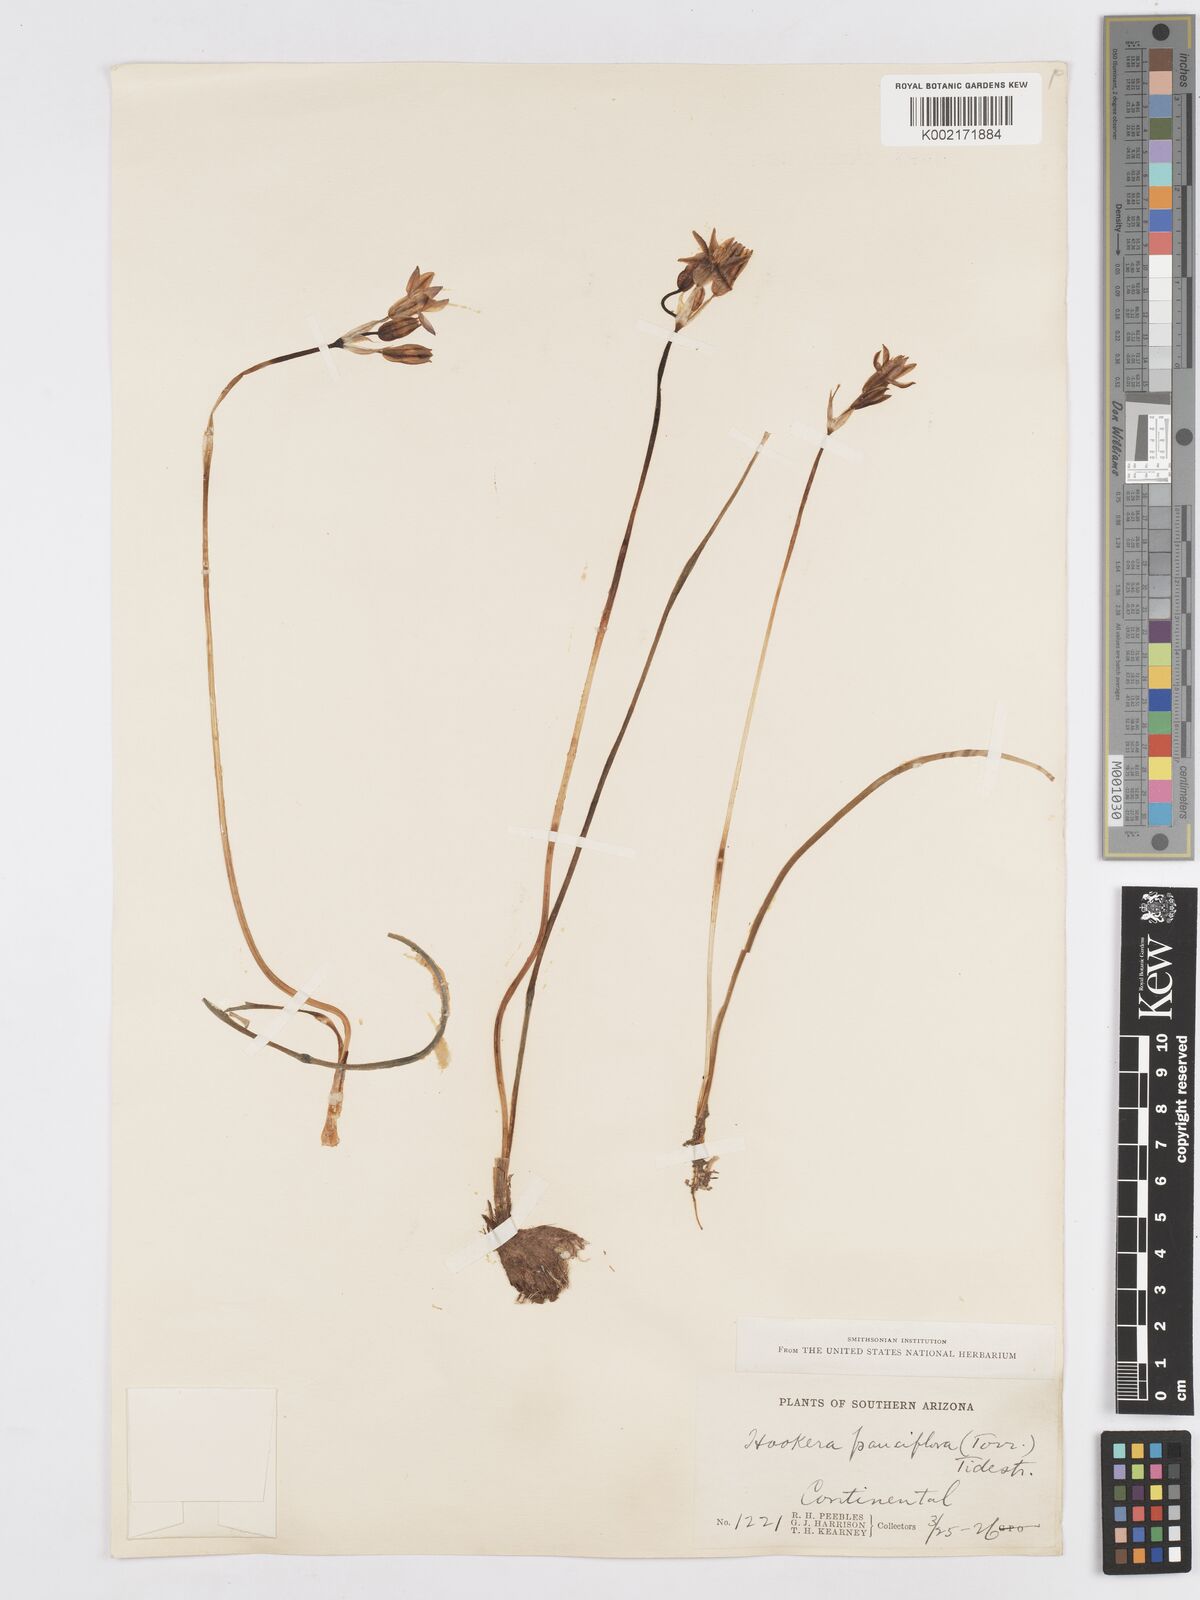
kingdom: Plantae
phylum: Tracheophyta
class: Liliopsida
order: Asparagales
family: Asparagaceae
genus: Dipterostemon
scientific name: Dipterostemon capitatus
